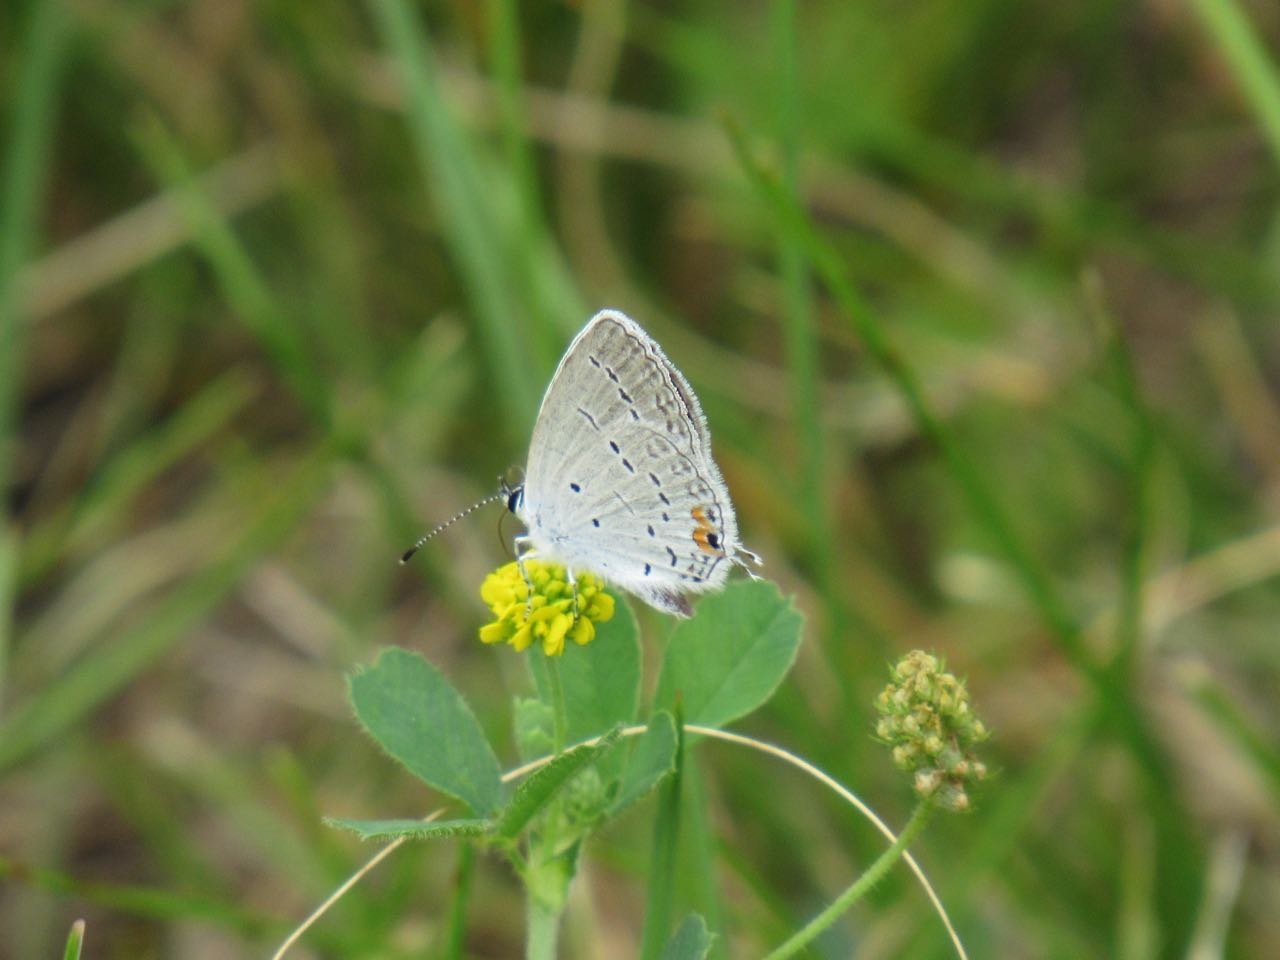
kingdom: Animalia
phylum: Arthropoda
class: Insecta
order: Lepidoptera
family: Lycaenidae
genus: Elkalyce
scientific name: Elkalyce comyntas
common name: Eastern Tailed-Blue
